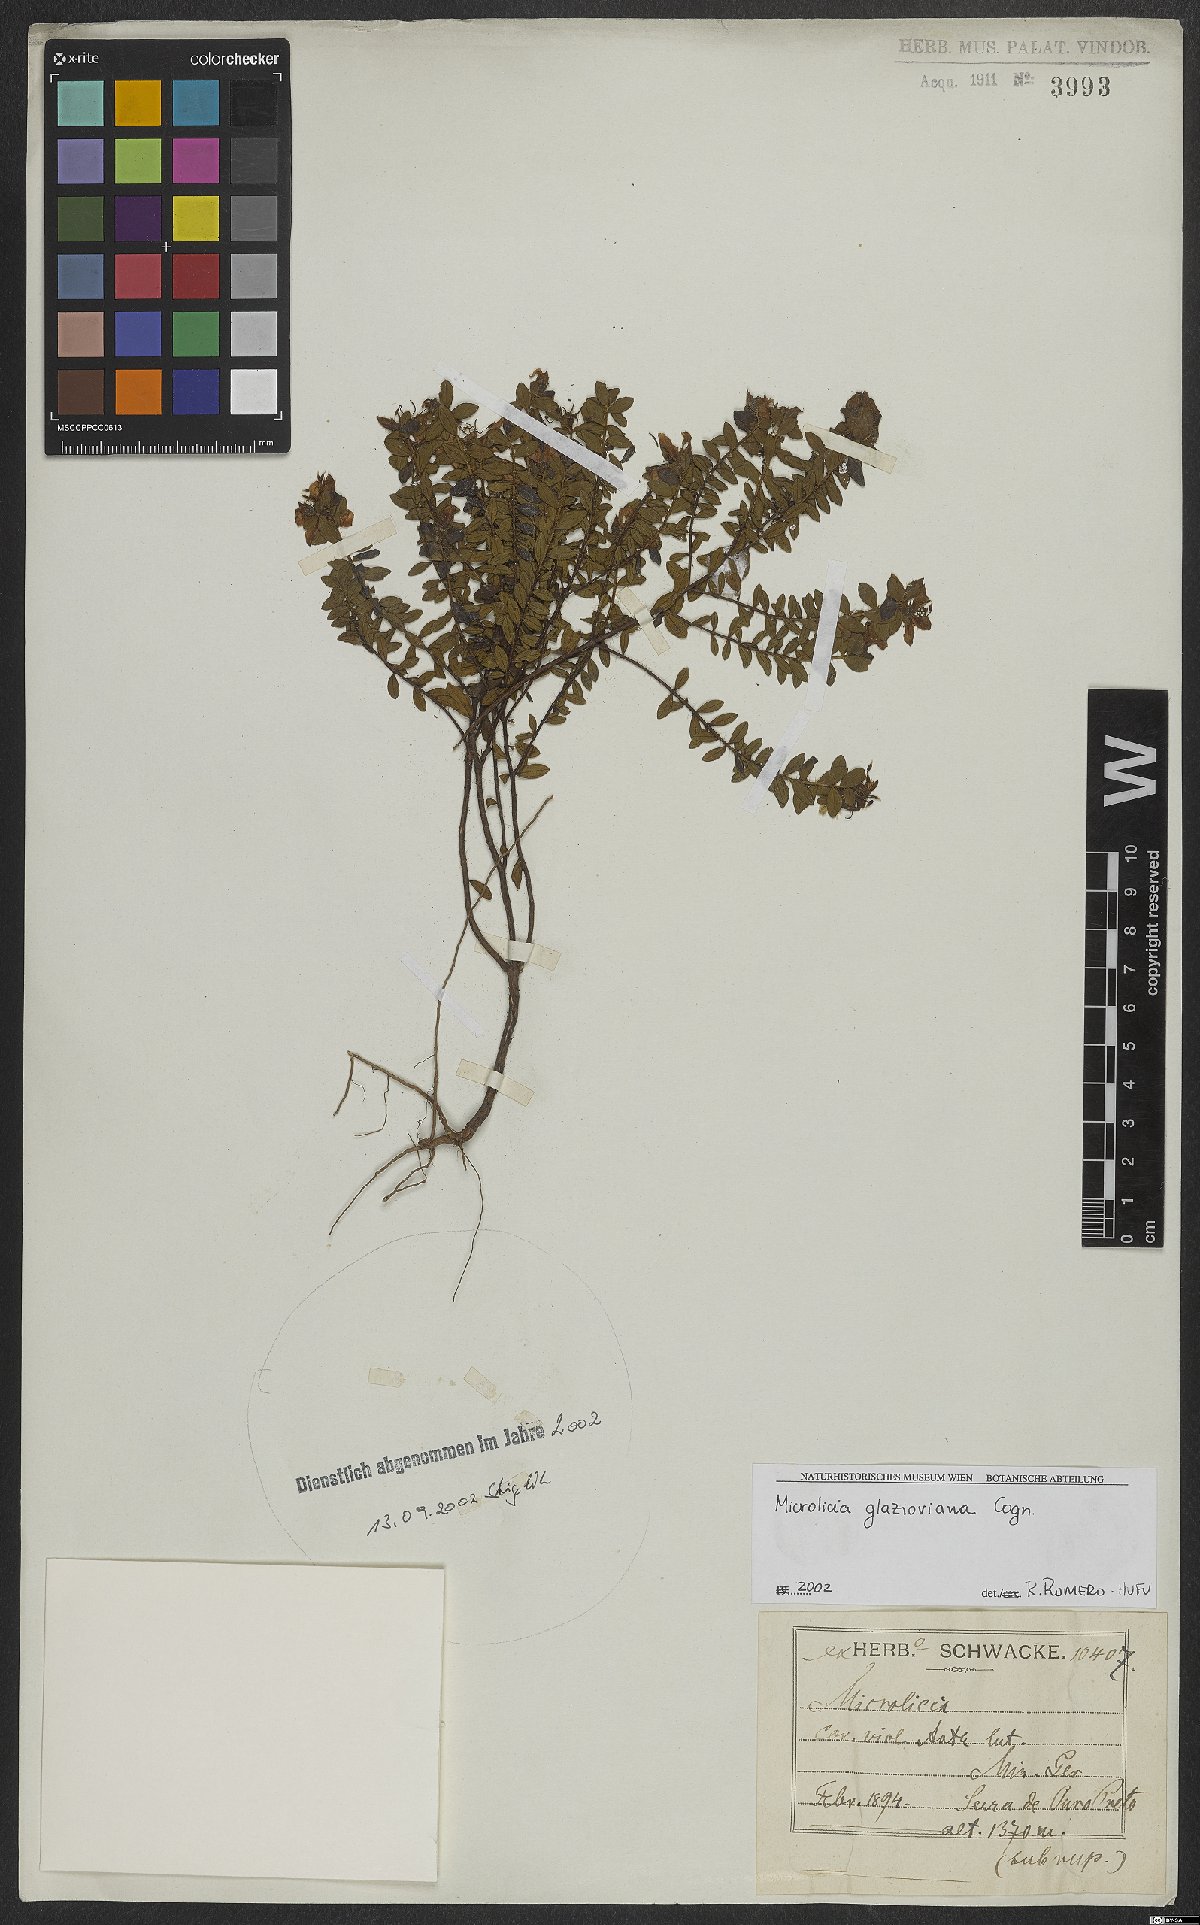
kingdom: Plantae
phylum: Tracheophyta
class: Magnoliopsida
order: Myrtales
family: Melastomataceae
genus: Microlicia
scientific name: Microlicia glazioviana
